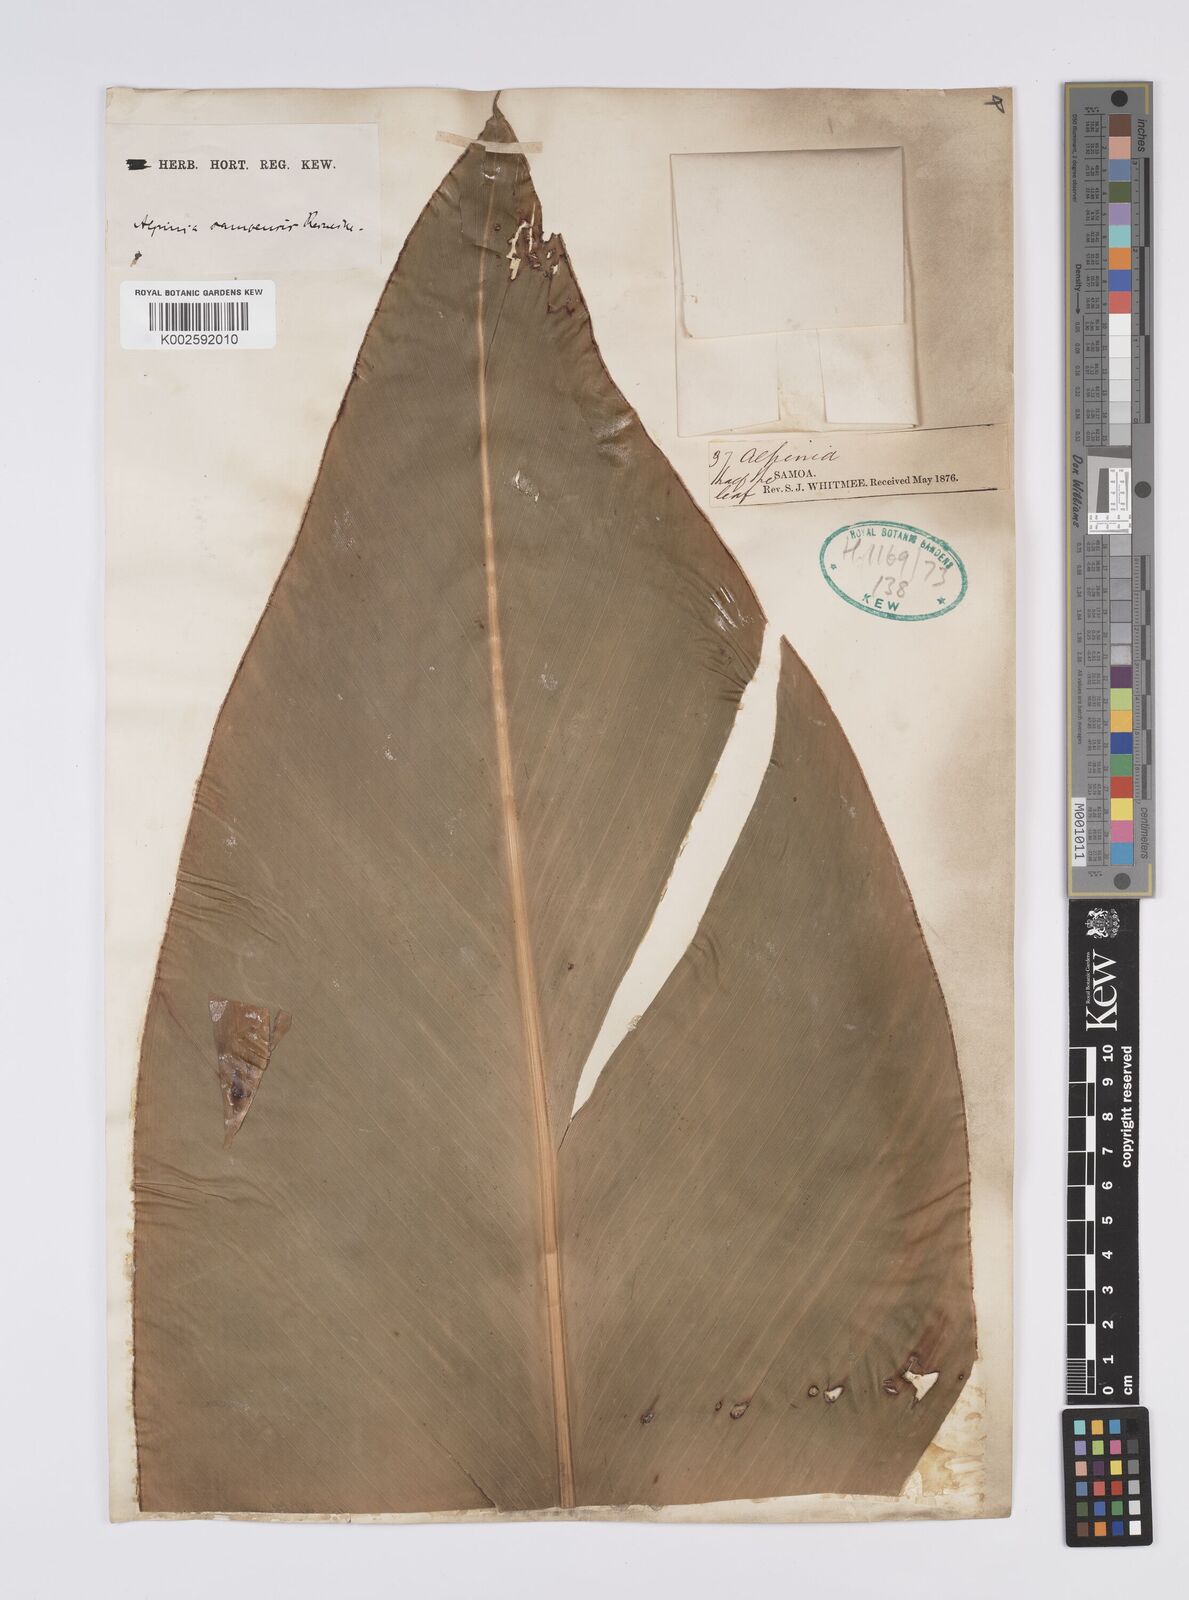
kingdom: Plantae
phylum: Tracheophyta
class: Liliopsida
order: Zingiberales
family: Zingiberaceae
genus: Alpinia
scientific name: Alpinia samoensis
